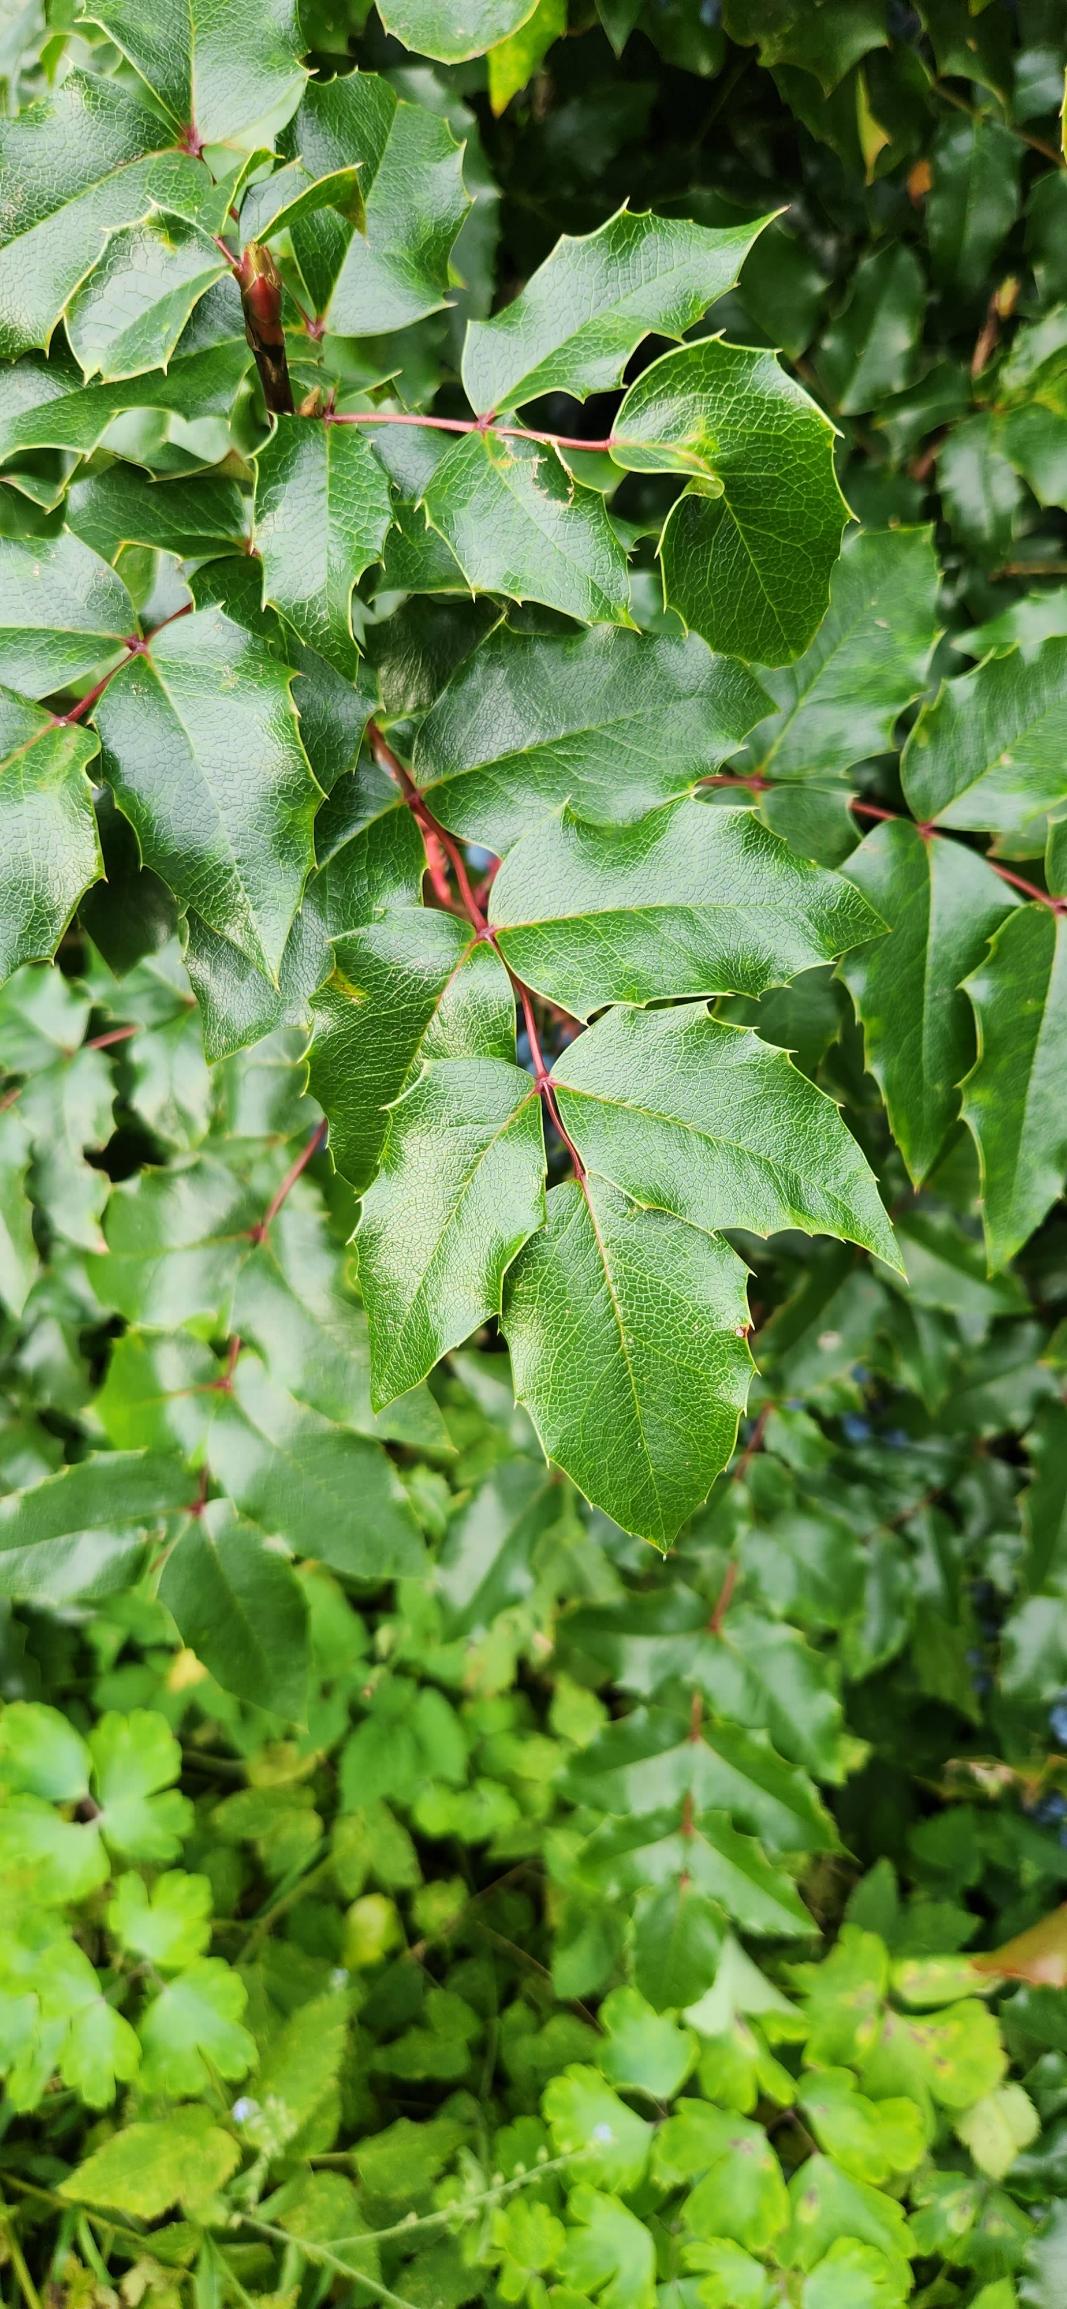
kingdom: Plantae
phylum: Tracheophyta
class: Magnoliopsida
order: Ranunculales
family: Berberidaceae
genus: Mahonia
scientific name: Mahonia aquifolium
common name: Almindelig mahonie
